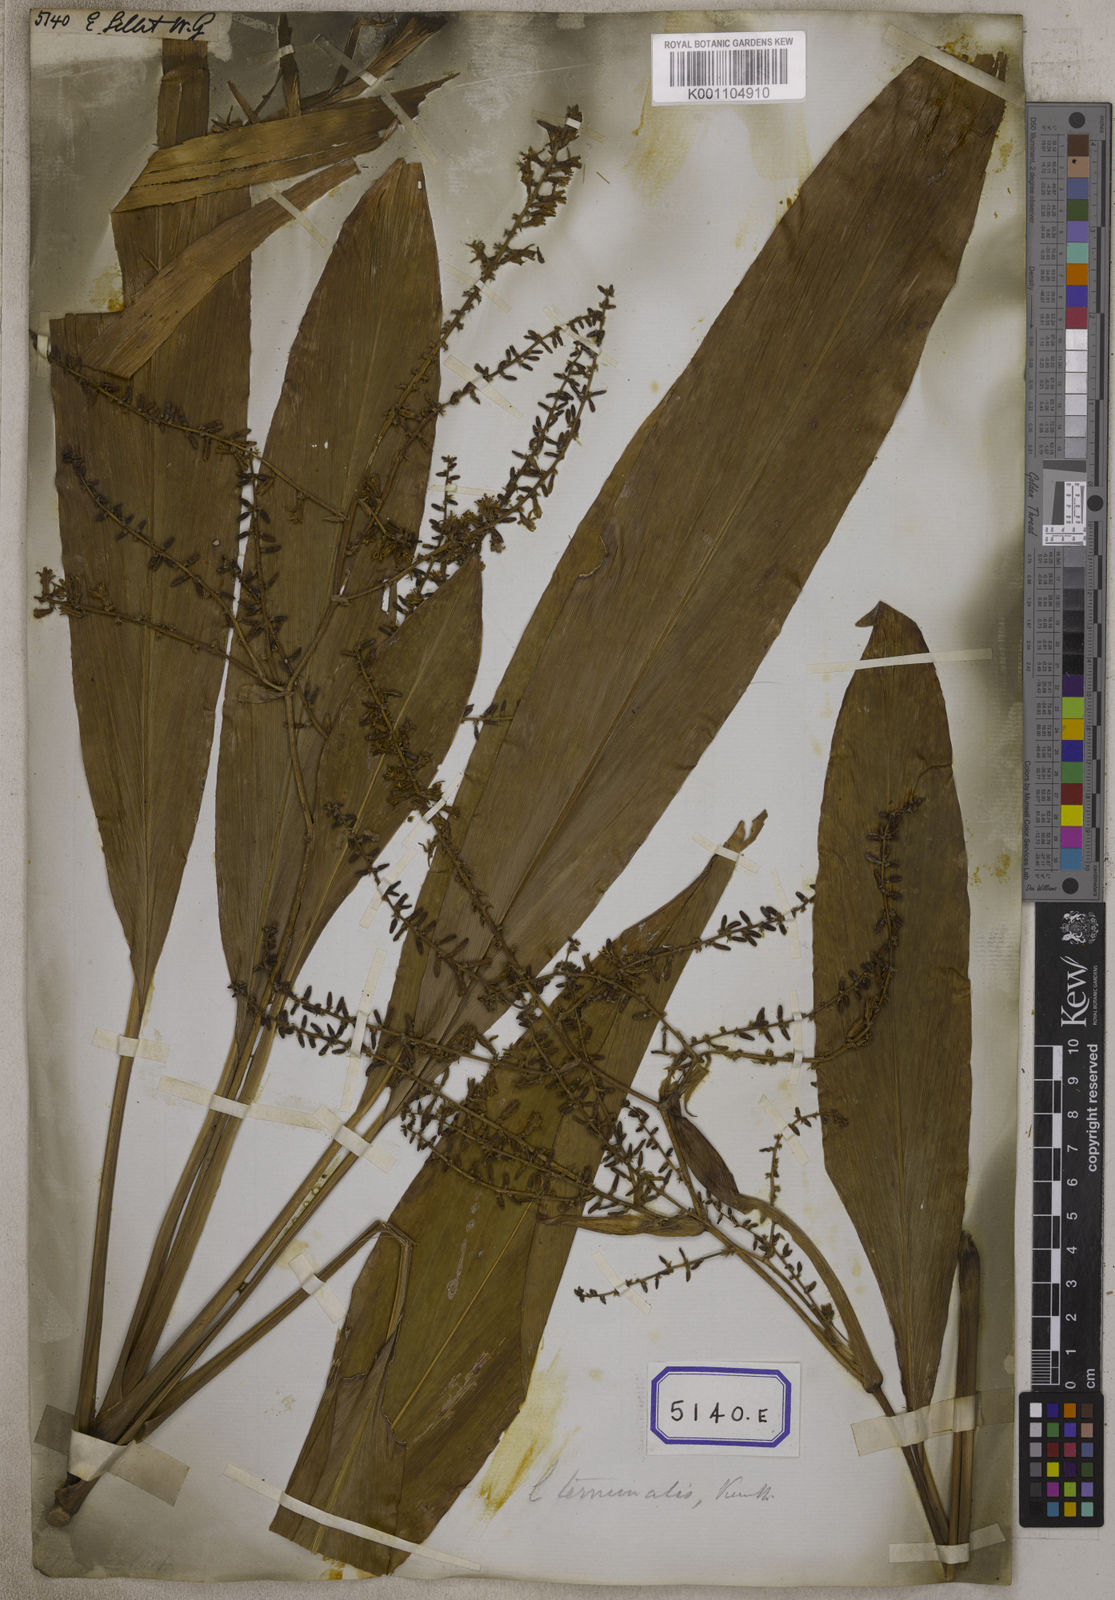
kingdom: Plantae
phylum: Tracheophyta
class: Liliopsida
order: Asparagales
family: Asparagaceae
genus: Cordyline
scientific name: Cordyline fruticosa
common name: Good-luck-plant
